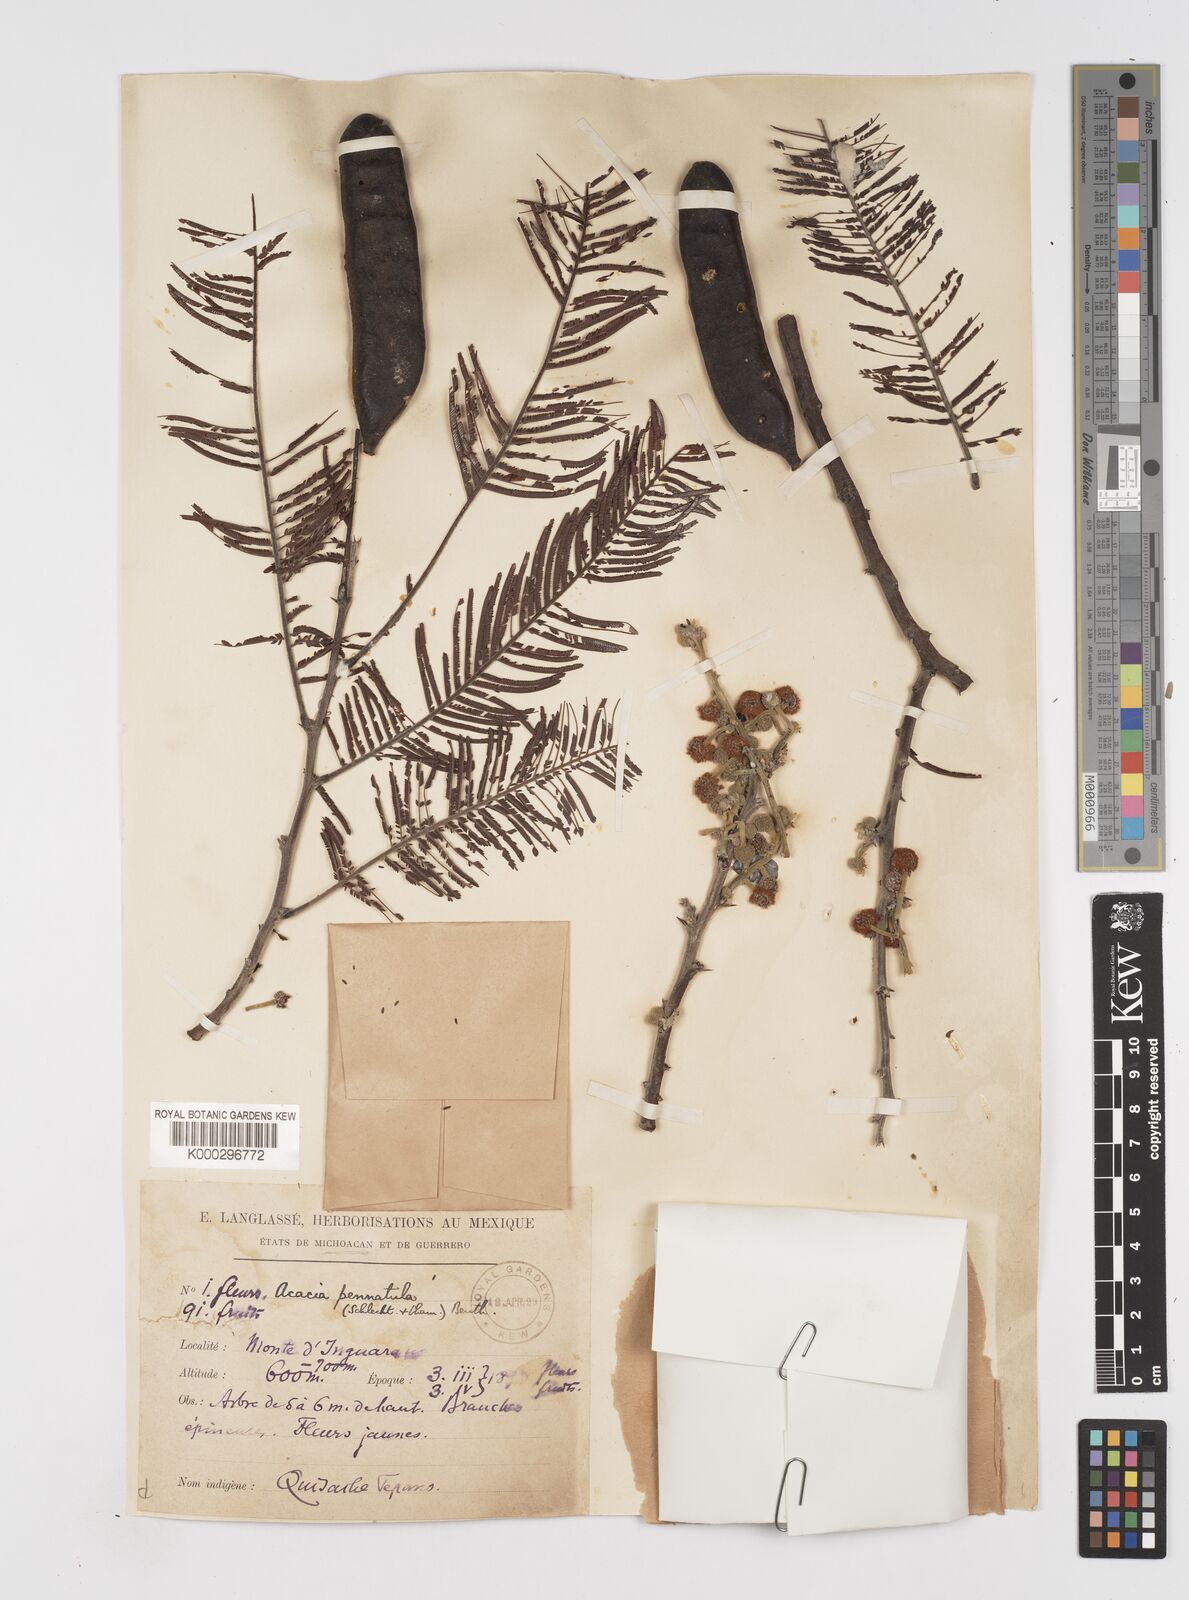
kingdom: Plantae
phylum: Tracheophyta
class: Magnoliopsida
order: Fabales
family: Fabaceae
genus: Vachellia
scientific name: Vachellia pennatula
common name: Fern-leaf acacia
